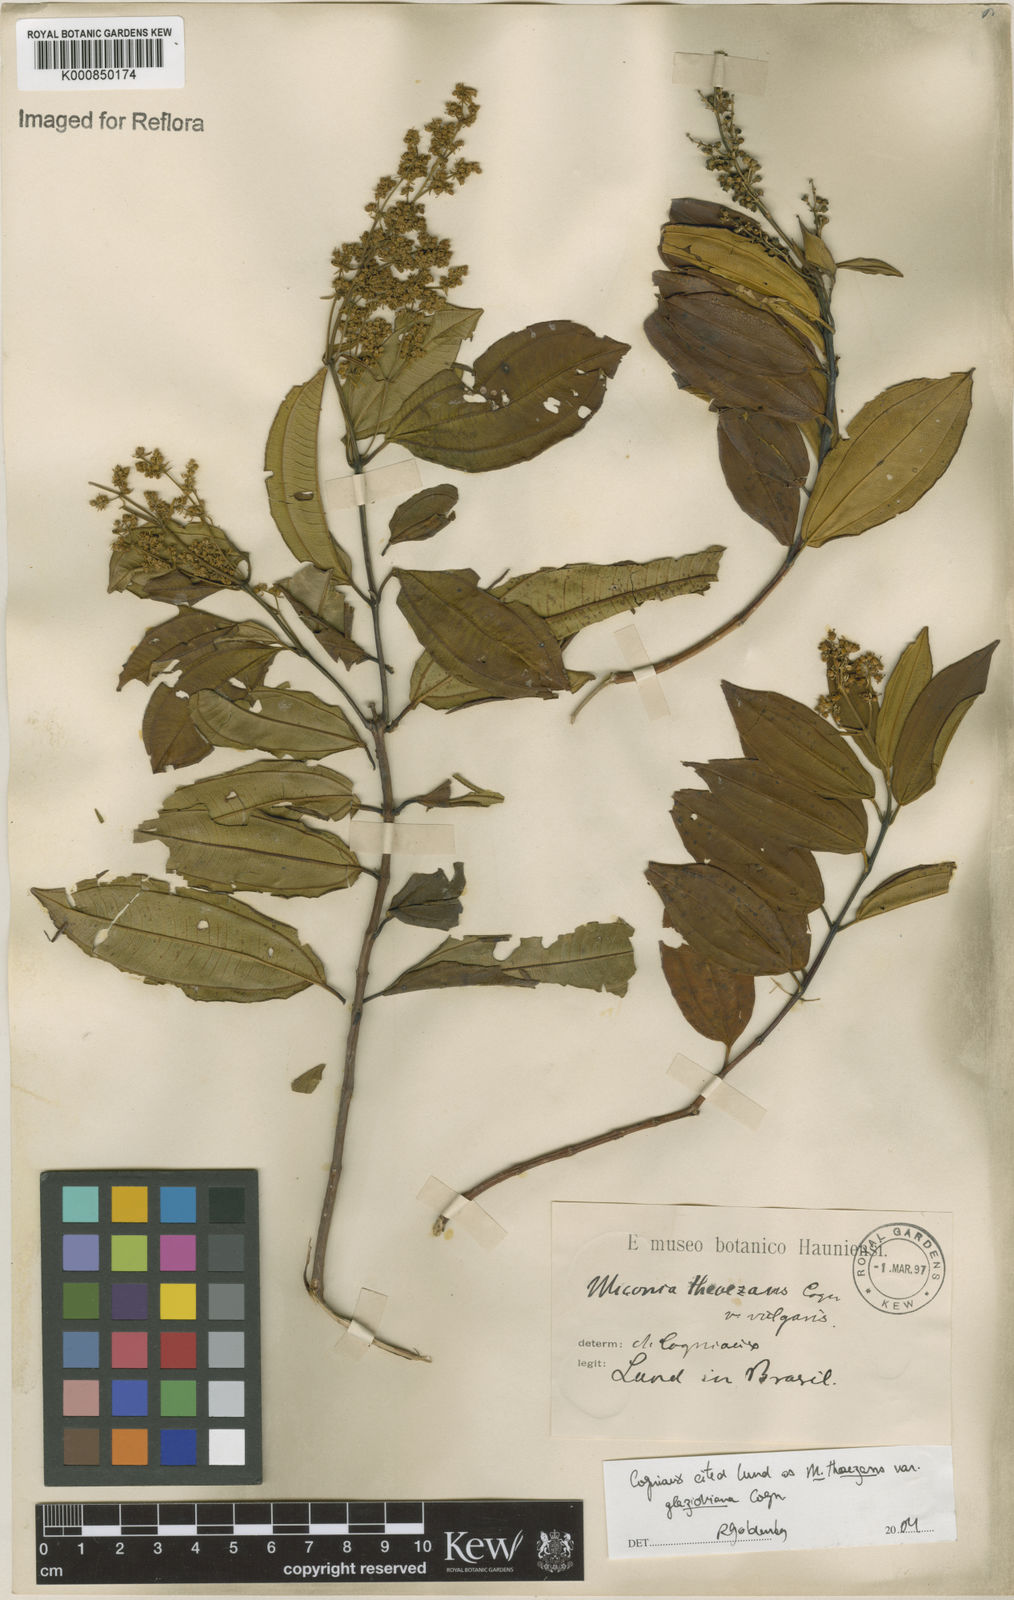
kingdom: Plantae
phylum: Tracheophyta
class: Magnoliopsida
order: Myrtales
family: Melastomataceae
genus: Miconia
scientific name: Miconia
